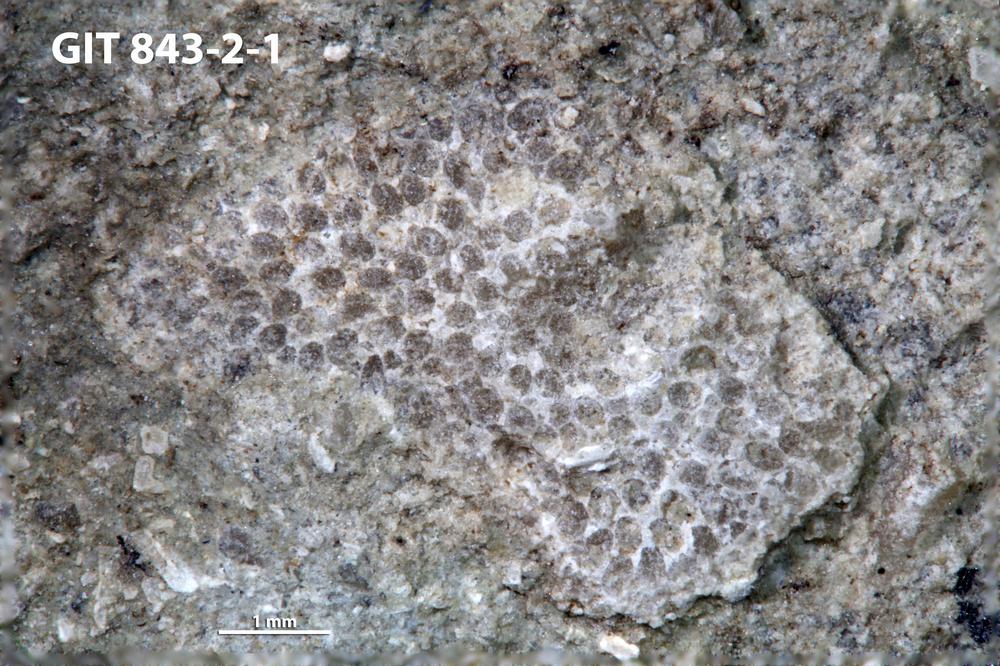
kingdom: Animalia
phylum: Bryozoa
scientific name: Bryozoa
